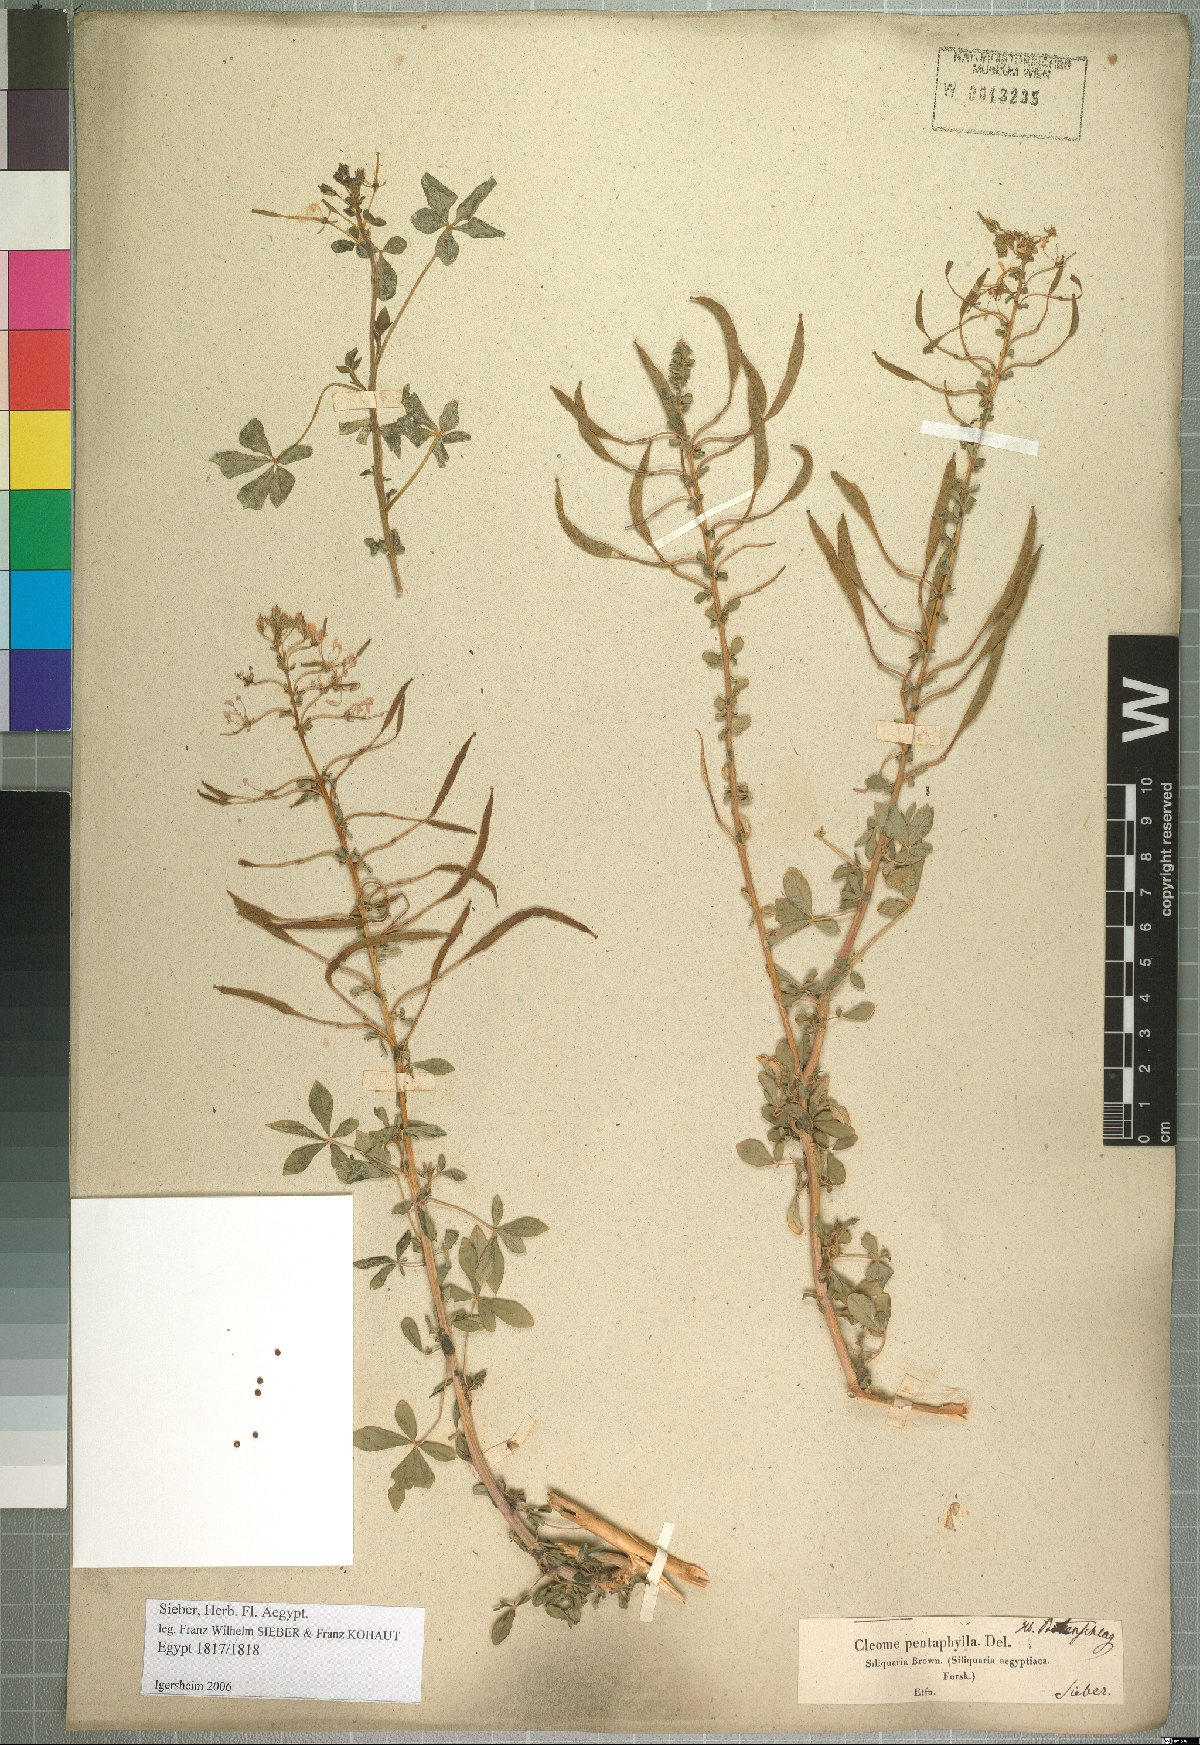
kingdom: Plantae
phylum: Tracheophyta
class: Magnoliopsida
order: Brassicales
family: Cleomaceae
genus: Gynandropsis
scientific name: Gynandropsis gynandra
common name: Spiderwisp
